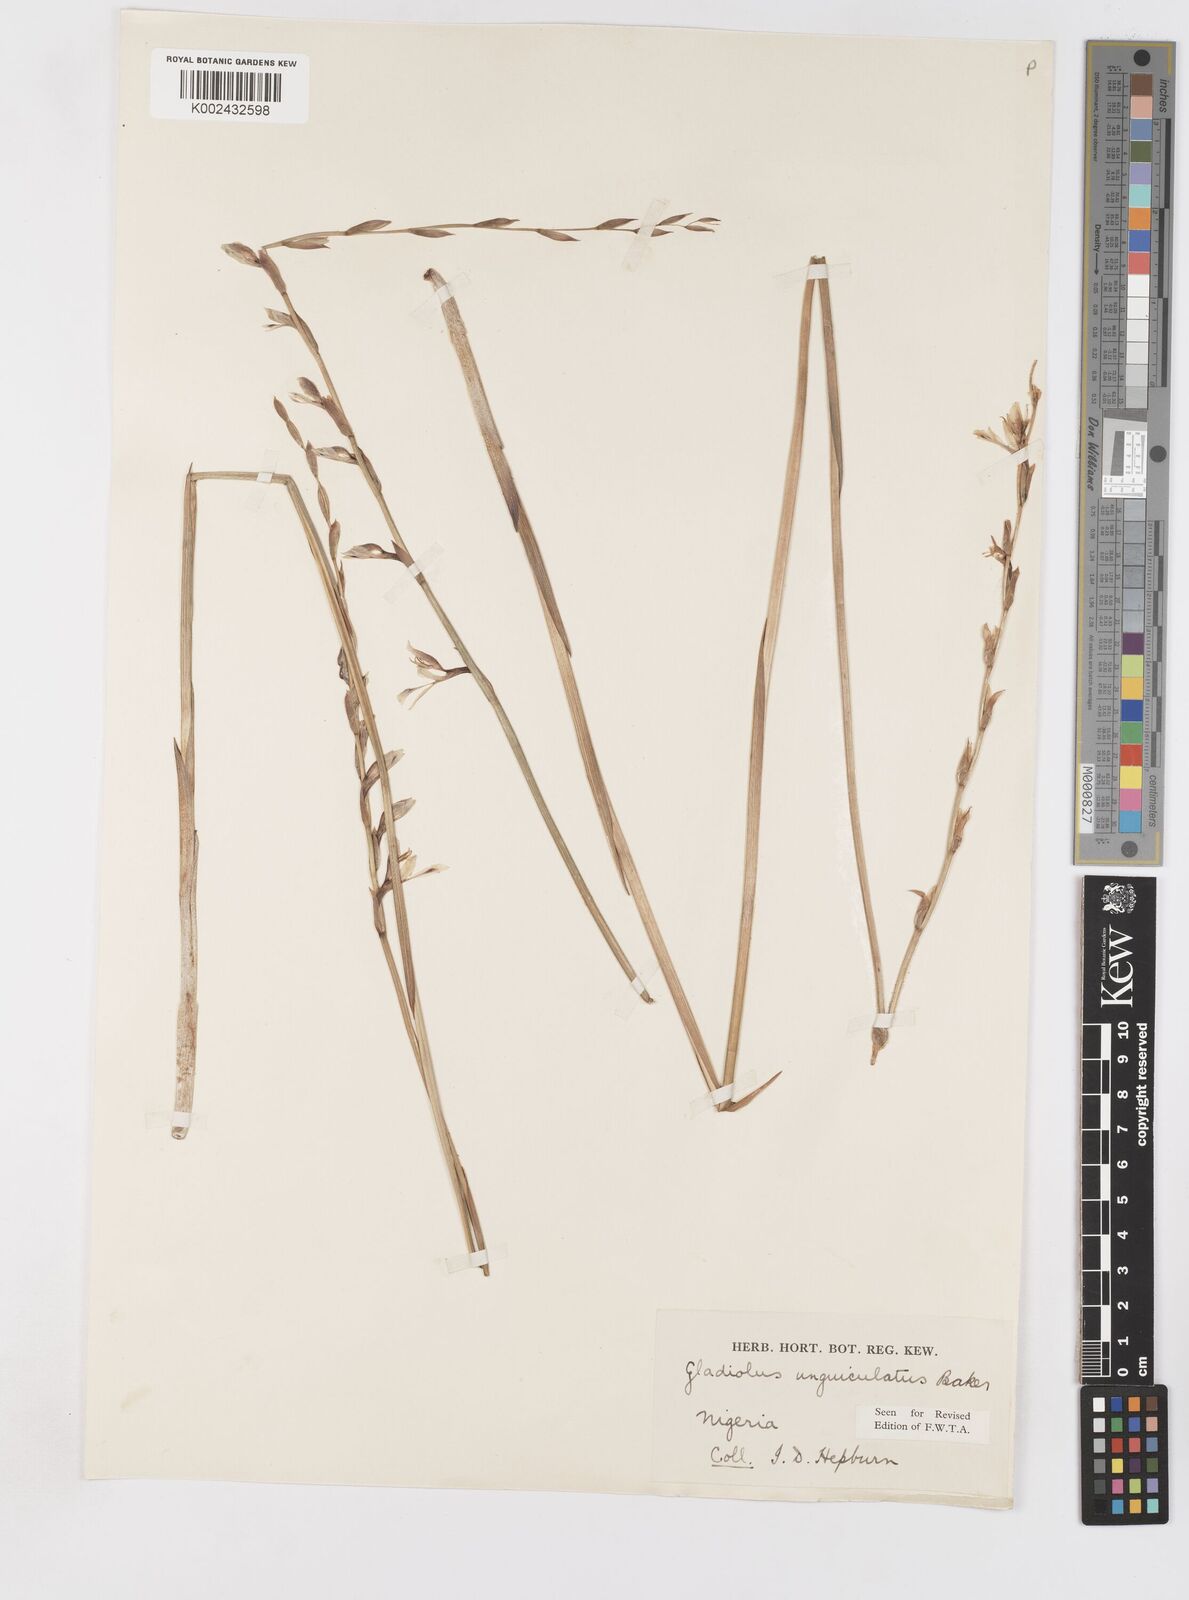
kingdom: Plantae
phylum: Tracheophyta
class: Liliopsida
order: Asparagales
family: Iridaceae
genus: Gladiolus
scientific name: Gladiolus unguiculatus
